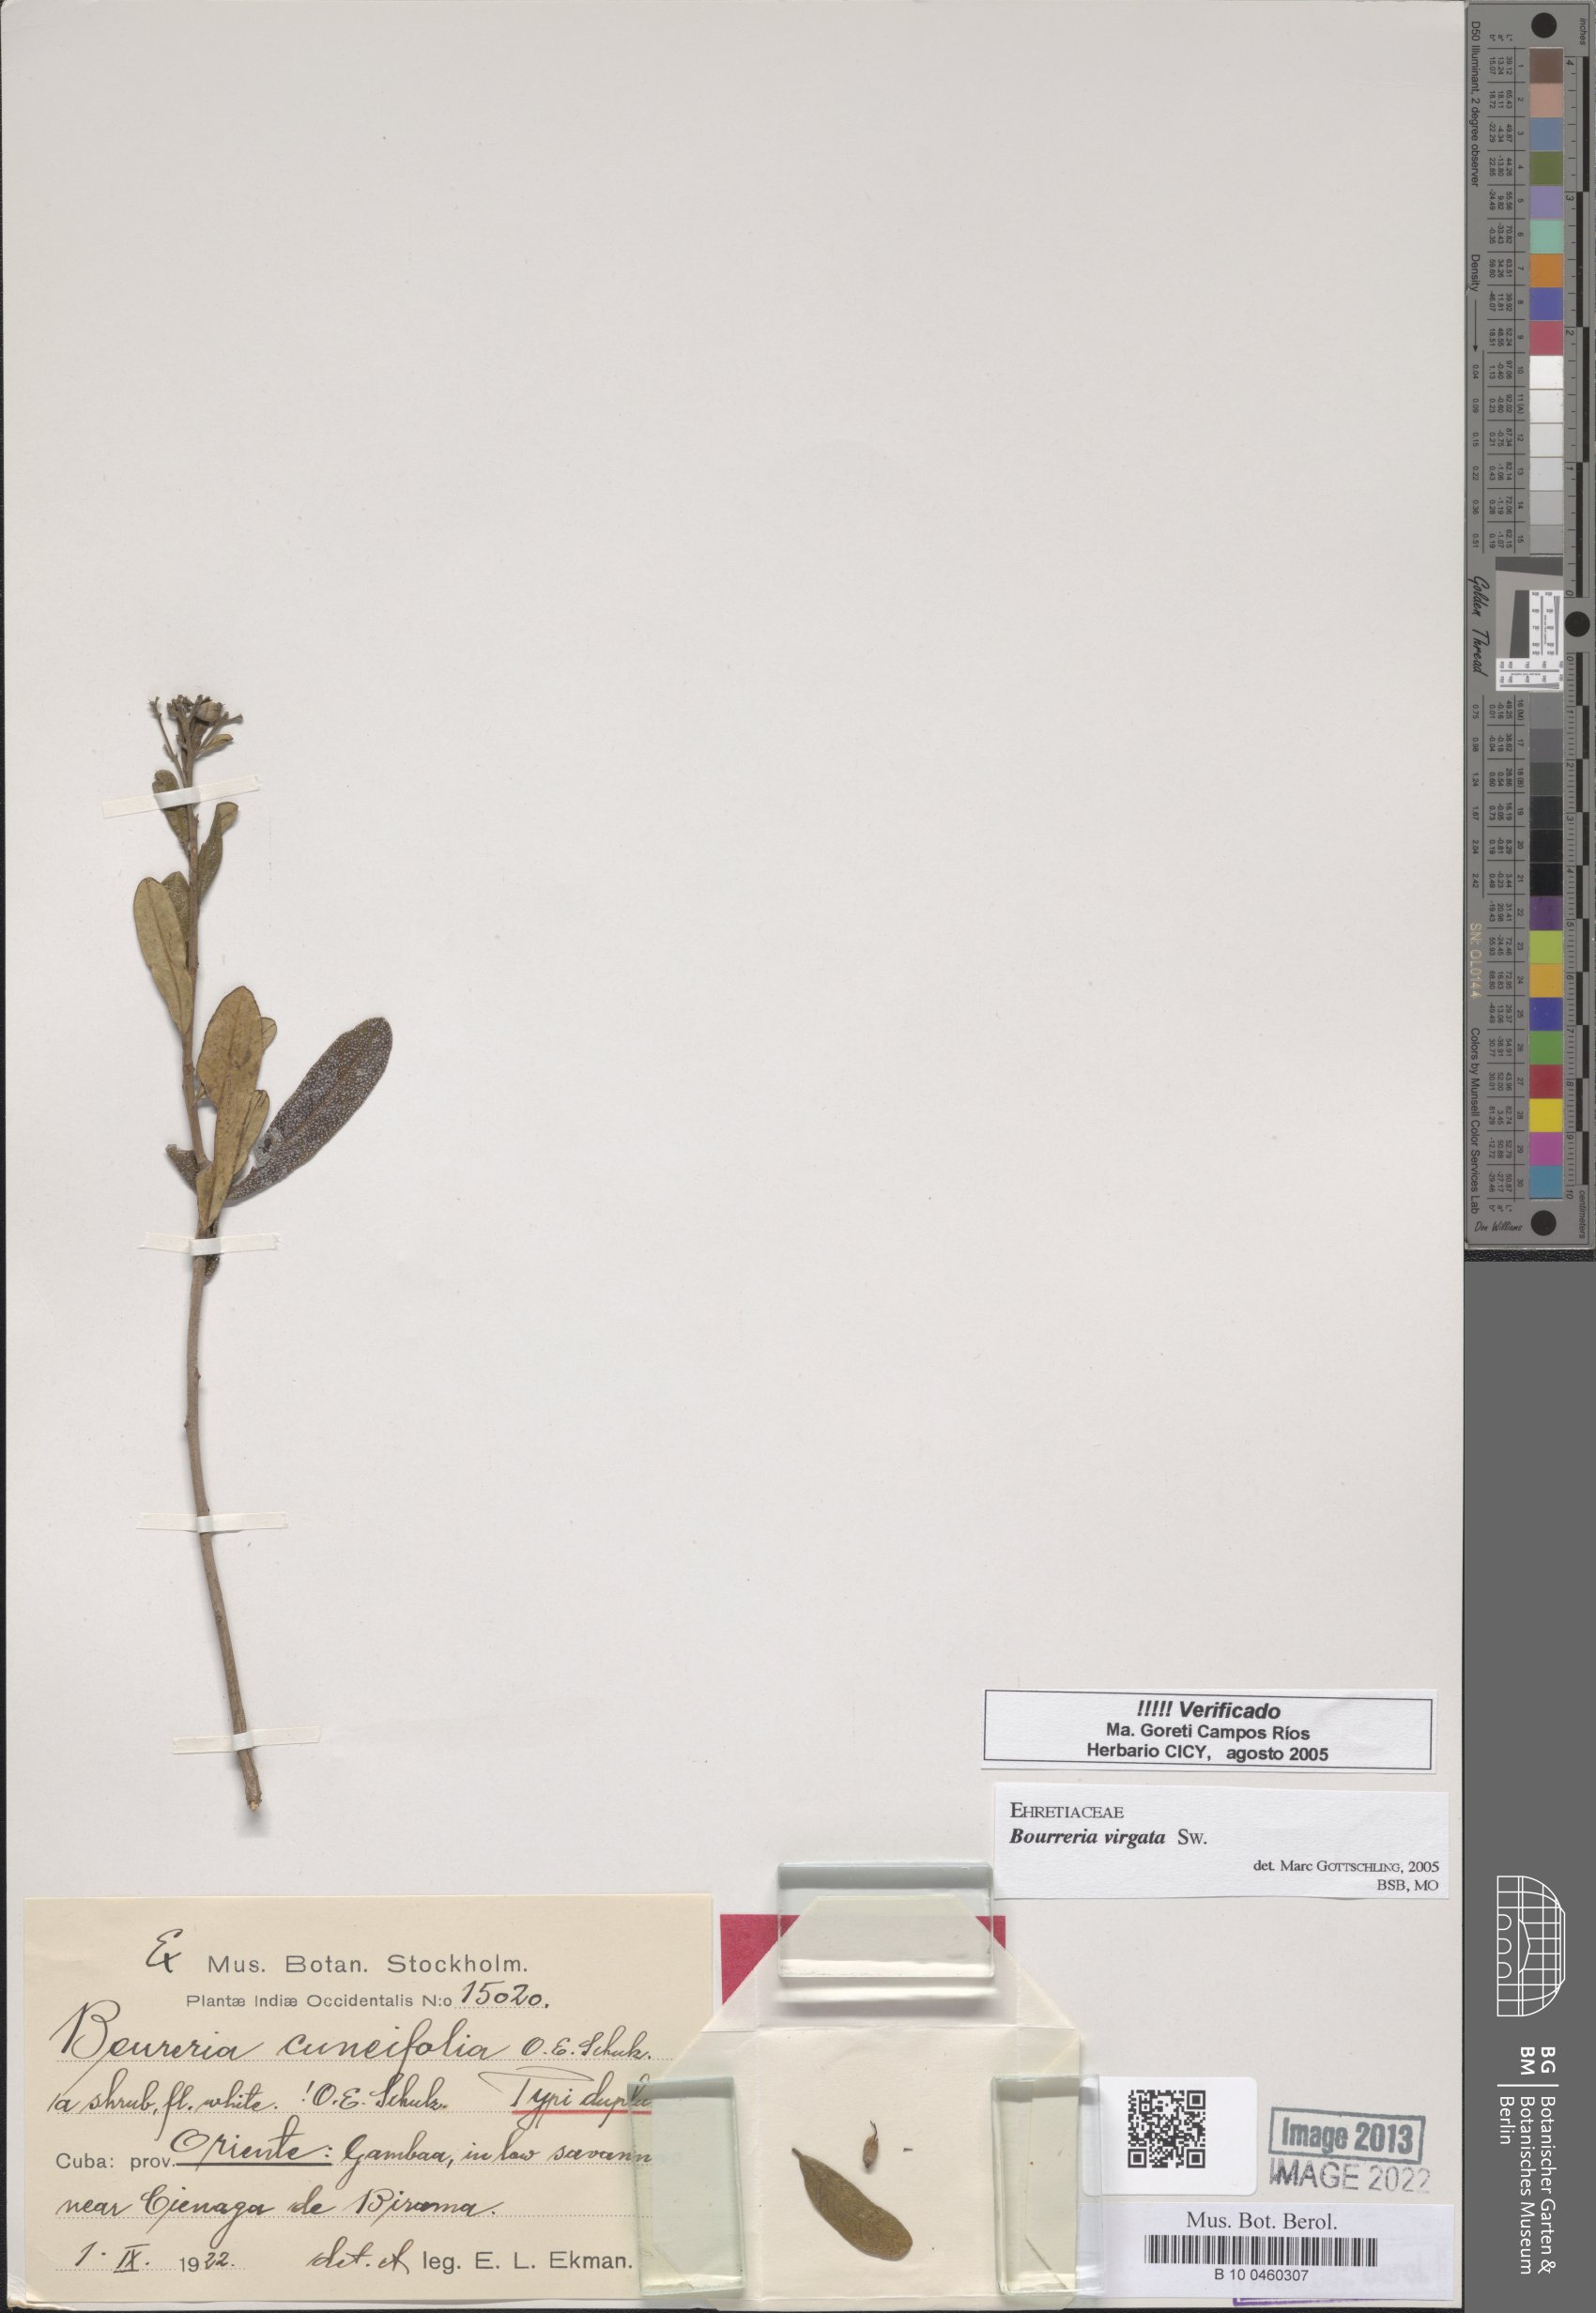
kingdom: Plantae
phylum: Tracheophyta
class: Magnoliopsida
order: Boraginales
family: Ehretiaceae
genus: Bourreria
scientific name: Bourreria virgata
